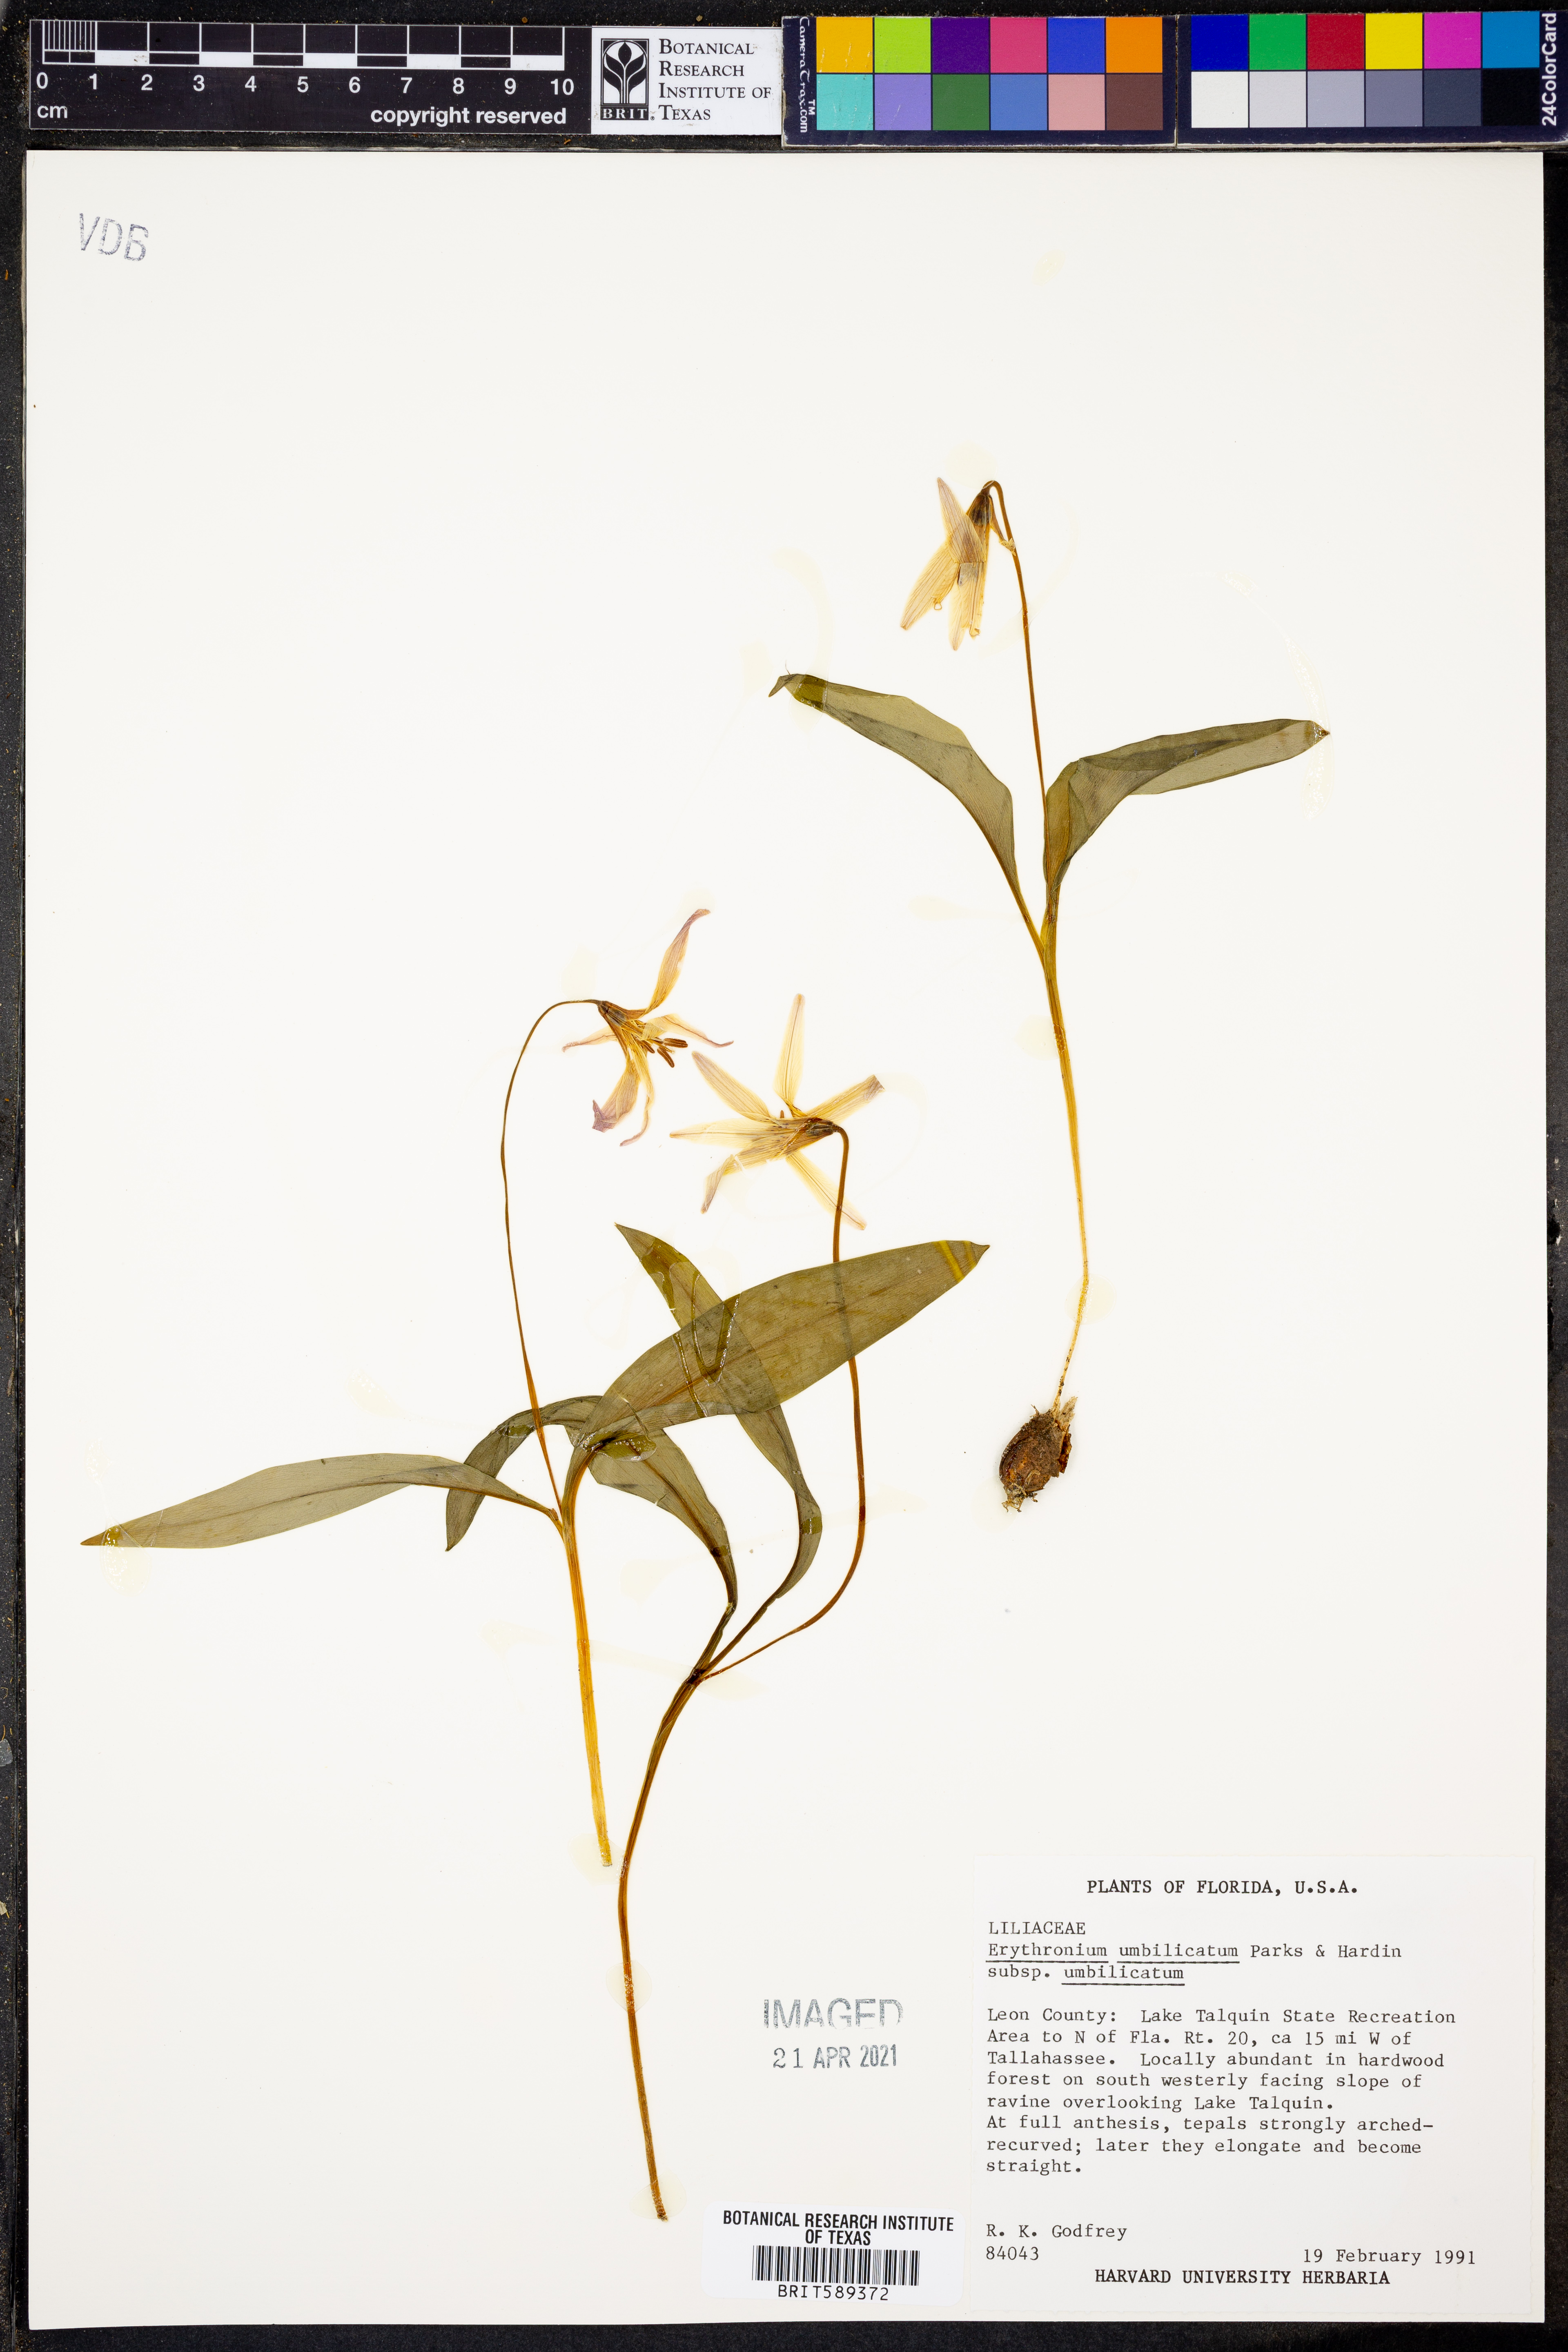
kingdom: Plantae
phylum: Tracheophyta
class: Liliopsida
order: Liliales
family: Liliaceae
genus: Erythronium
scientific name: Erythronium umbilicatum
